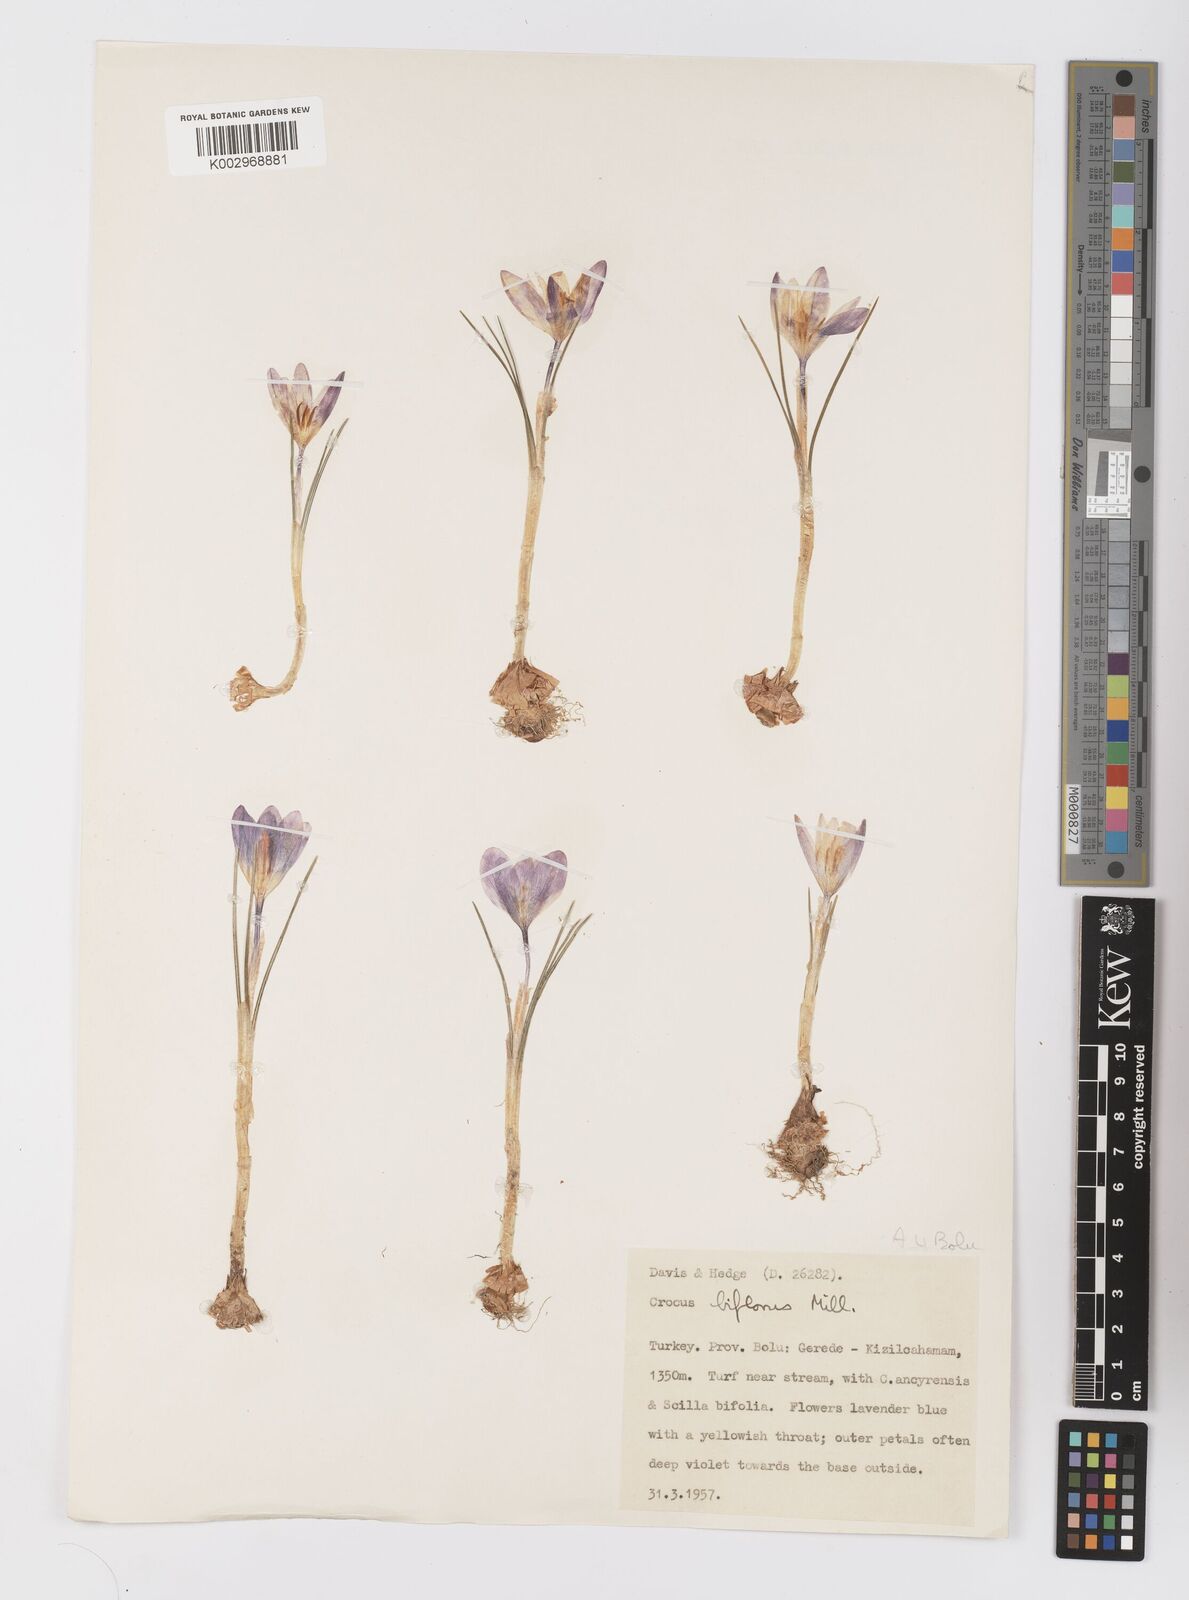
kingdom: Plantae
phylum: Tracheophyta
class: Liliopsida
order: Asparagales
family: Iridaceae
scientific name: Iridaceae
